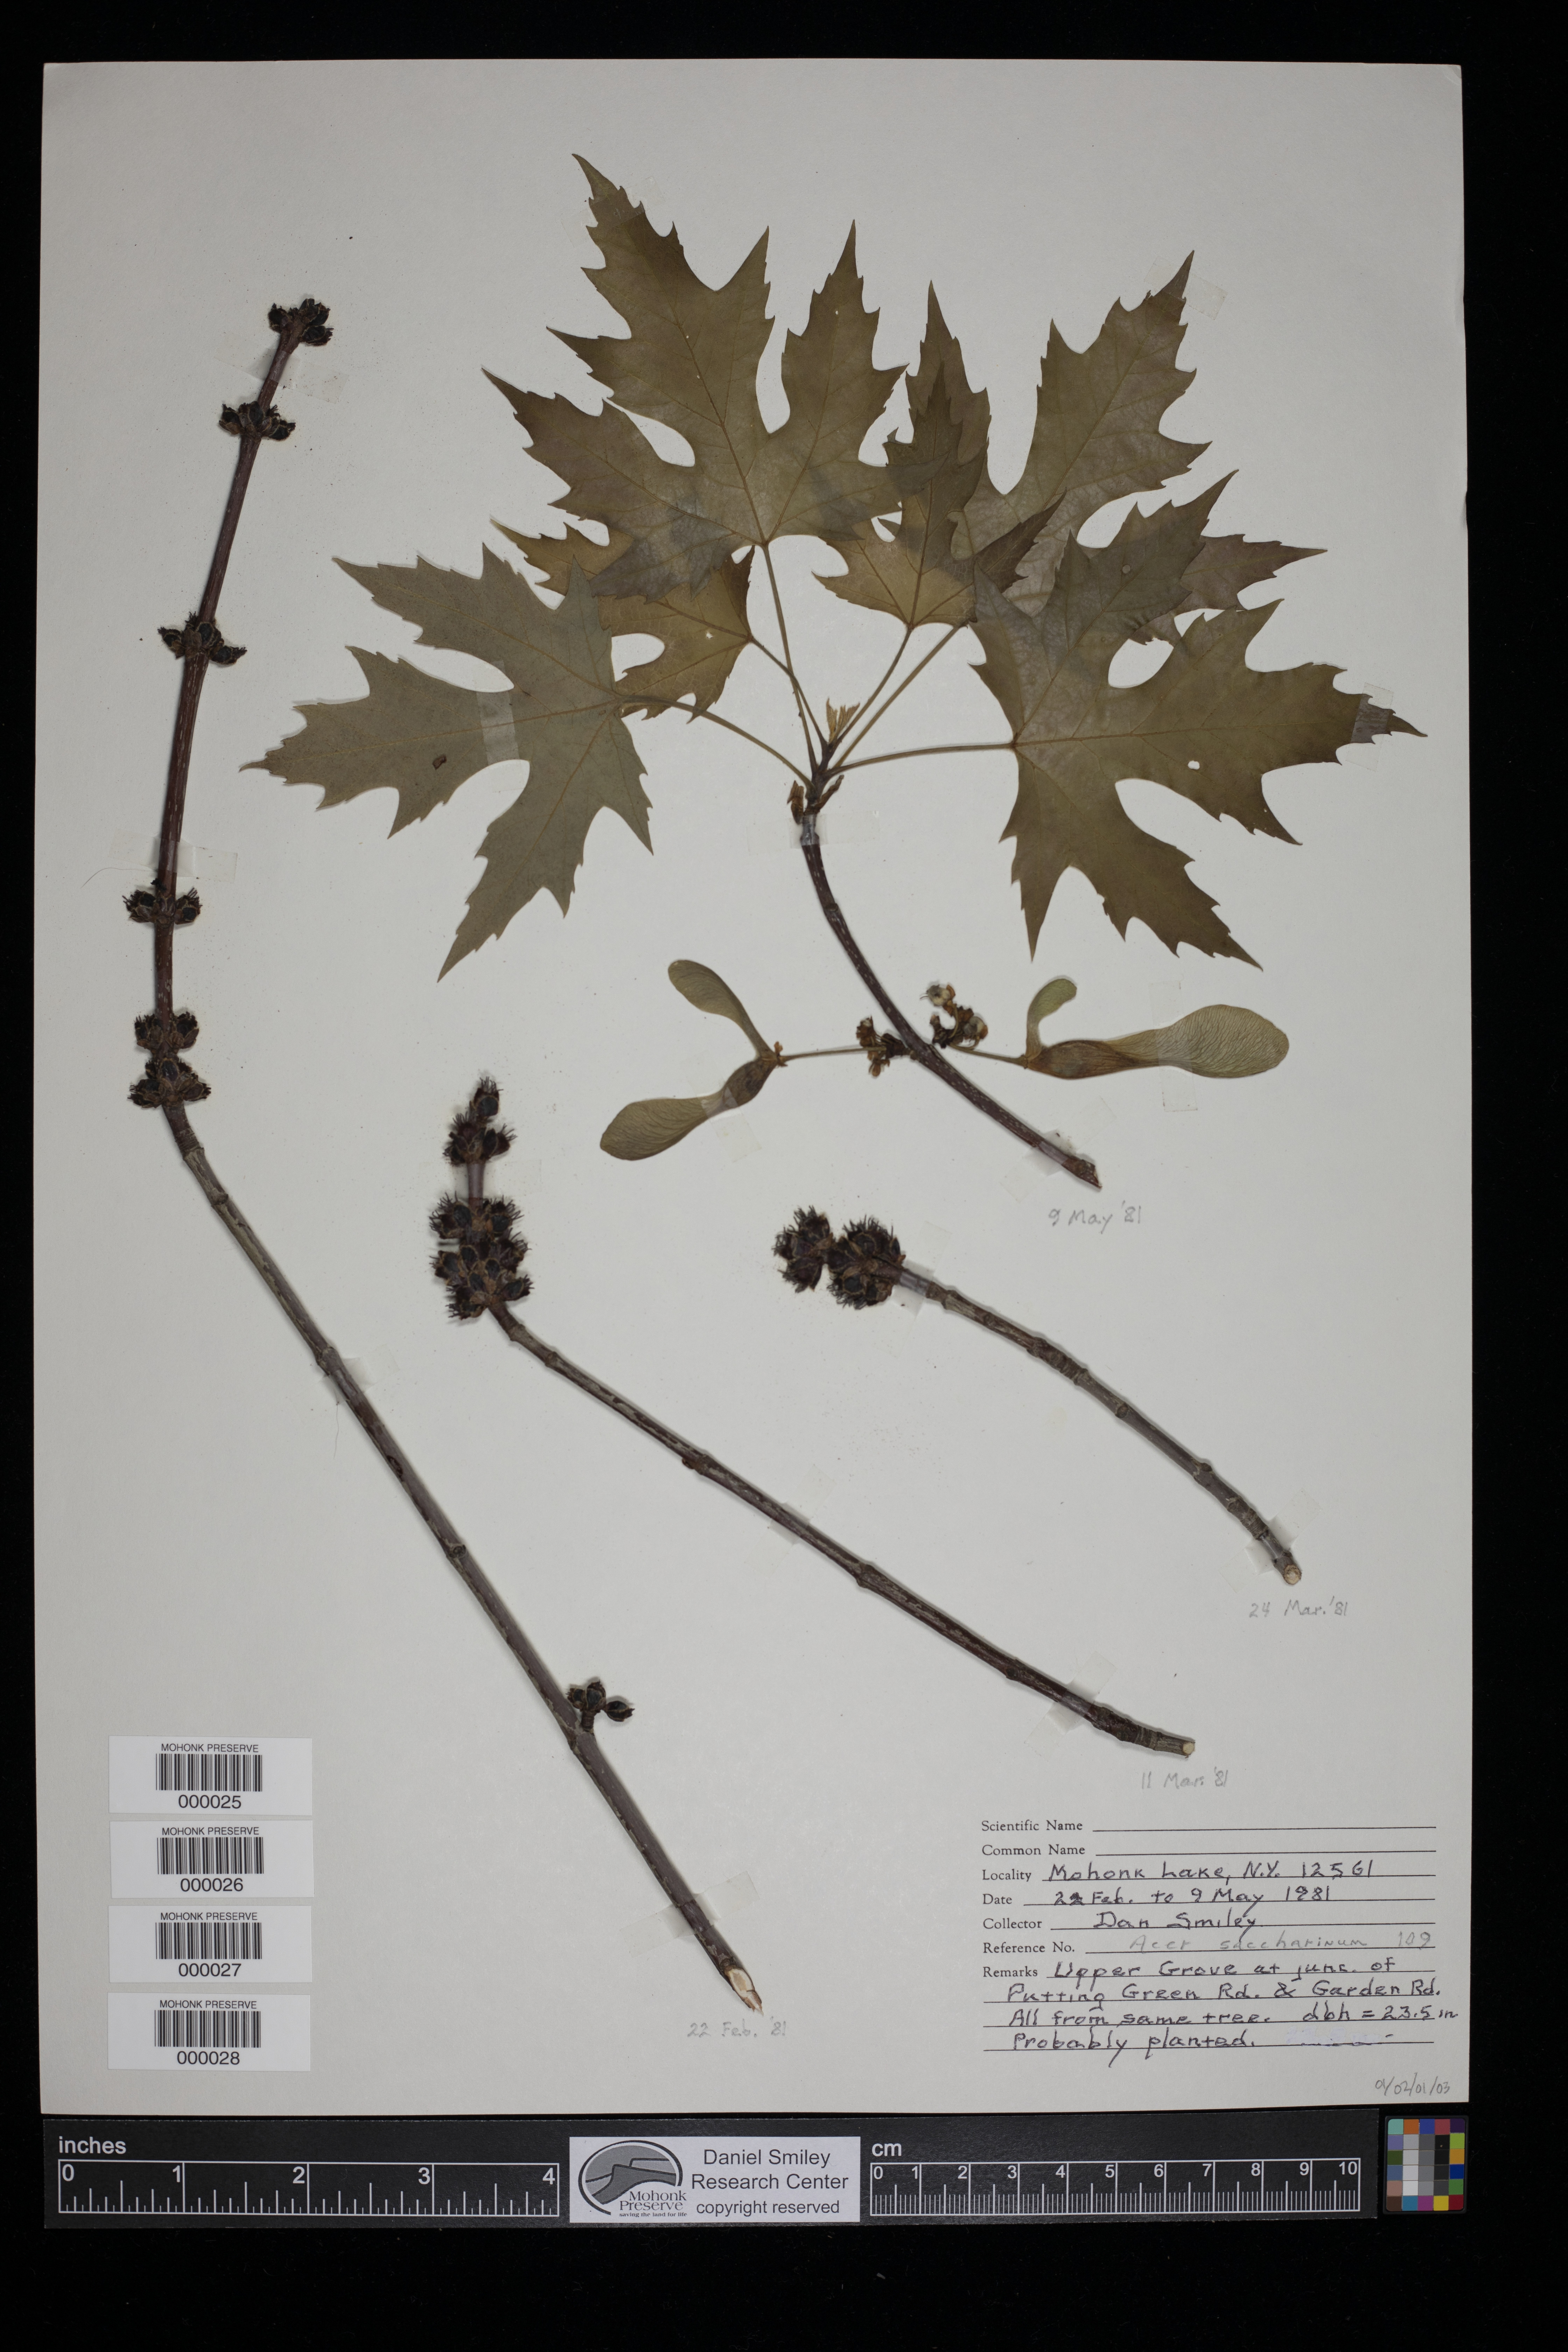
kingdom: Plantae
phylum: Tracheophyta
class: Magnoliopsida
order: Sapindales
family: Sapindaceae
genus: Acer
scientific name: Acer saccharinum
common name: Silver maple
